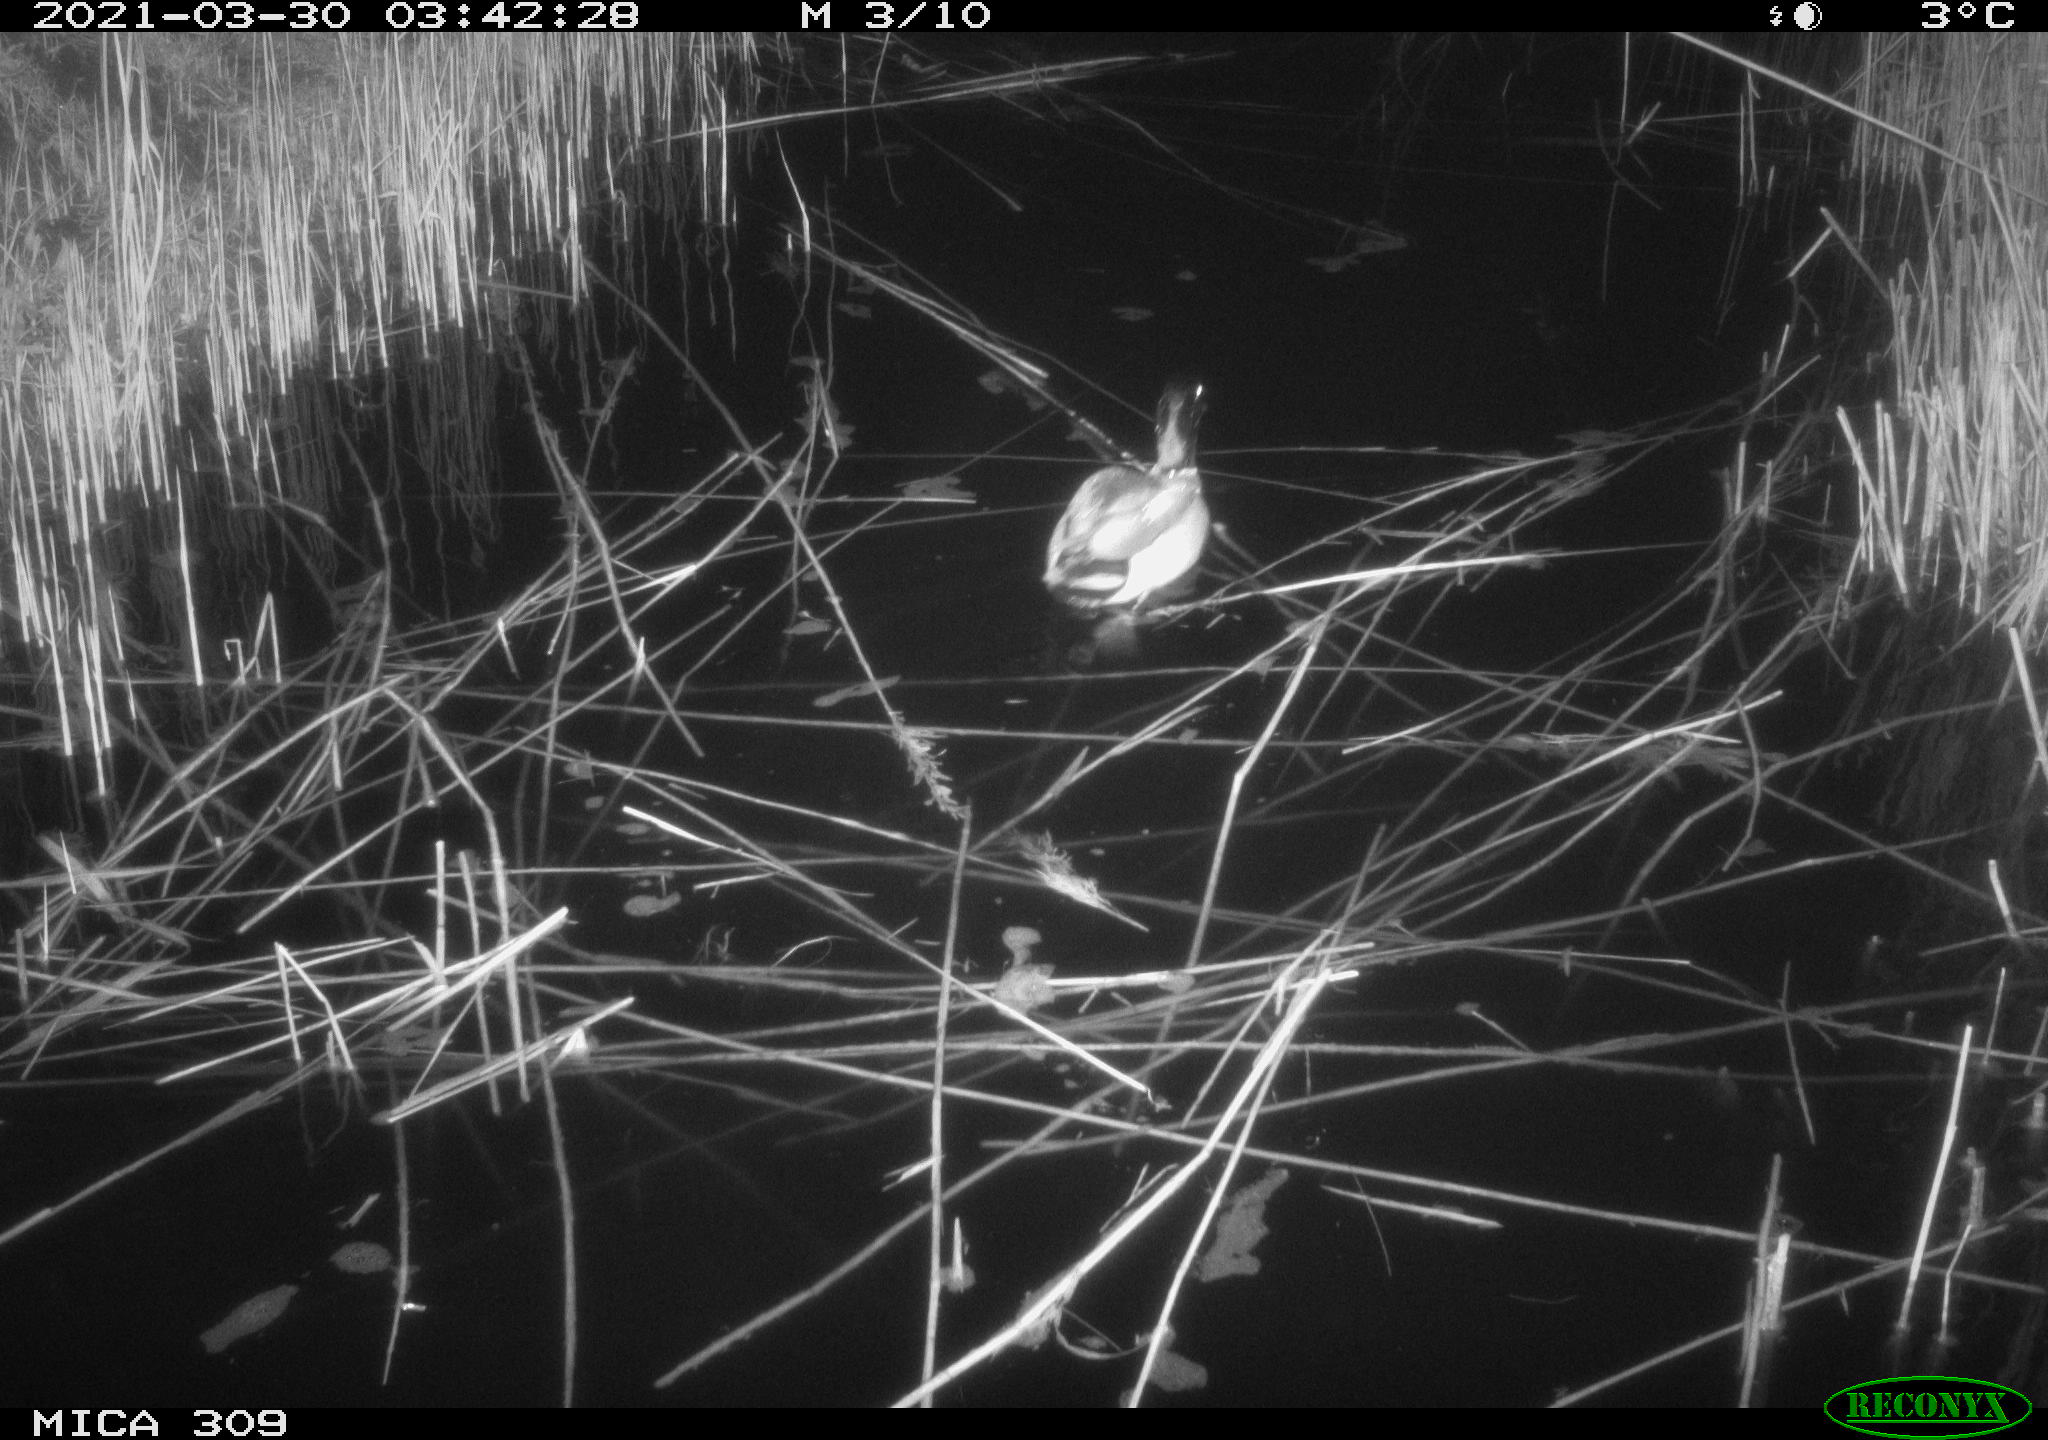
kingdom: Animalia
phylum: Chordata
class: Aves
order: Anseriformes
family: Anatidae
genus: Anas
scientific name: Anas platyrhynchos
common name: Mallard
